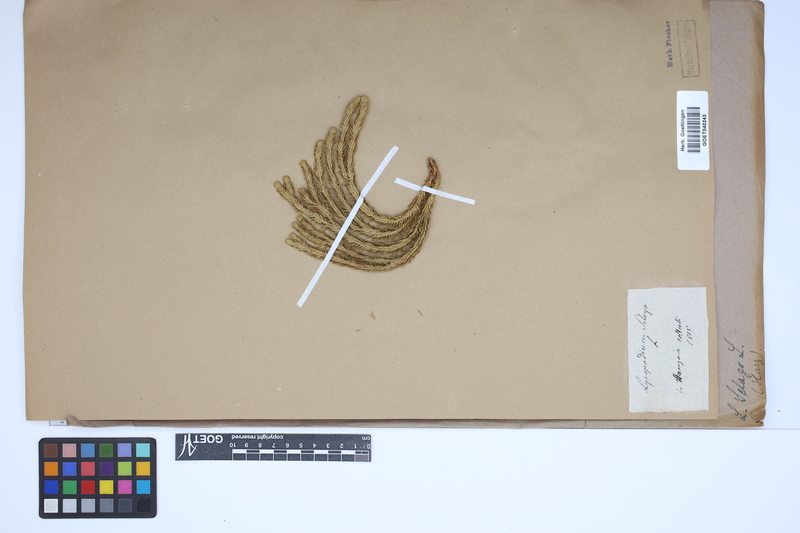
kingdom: Plantae
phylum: Tracheophyta
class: Lycopodiopsida
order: Lycopodiales
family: Lycopodiaceae
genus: Huperzia
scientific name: Huperzia selago
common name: Northern firmoss
